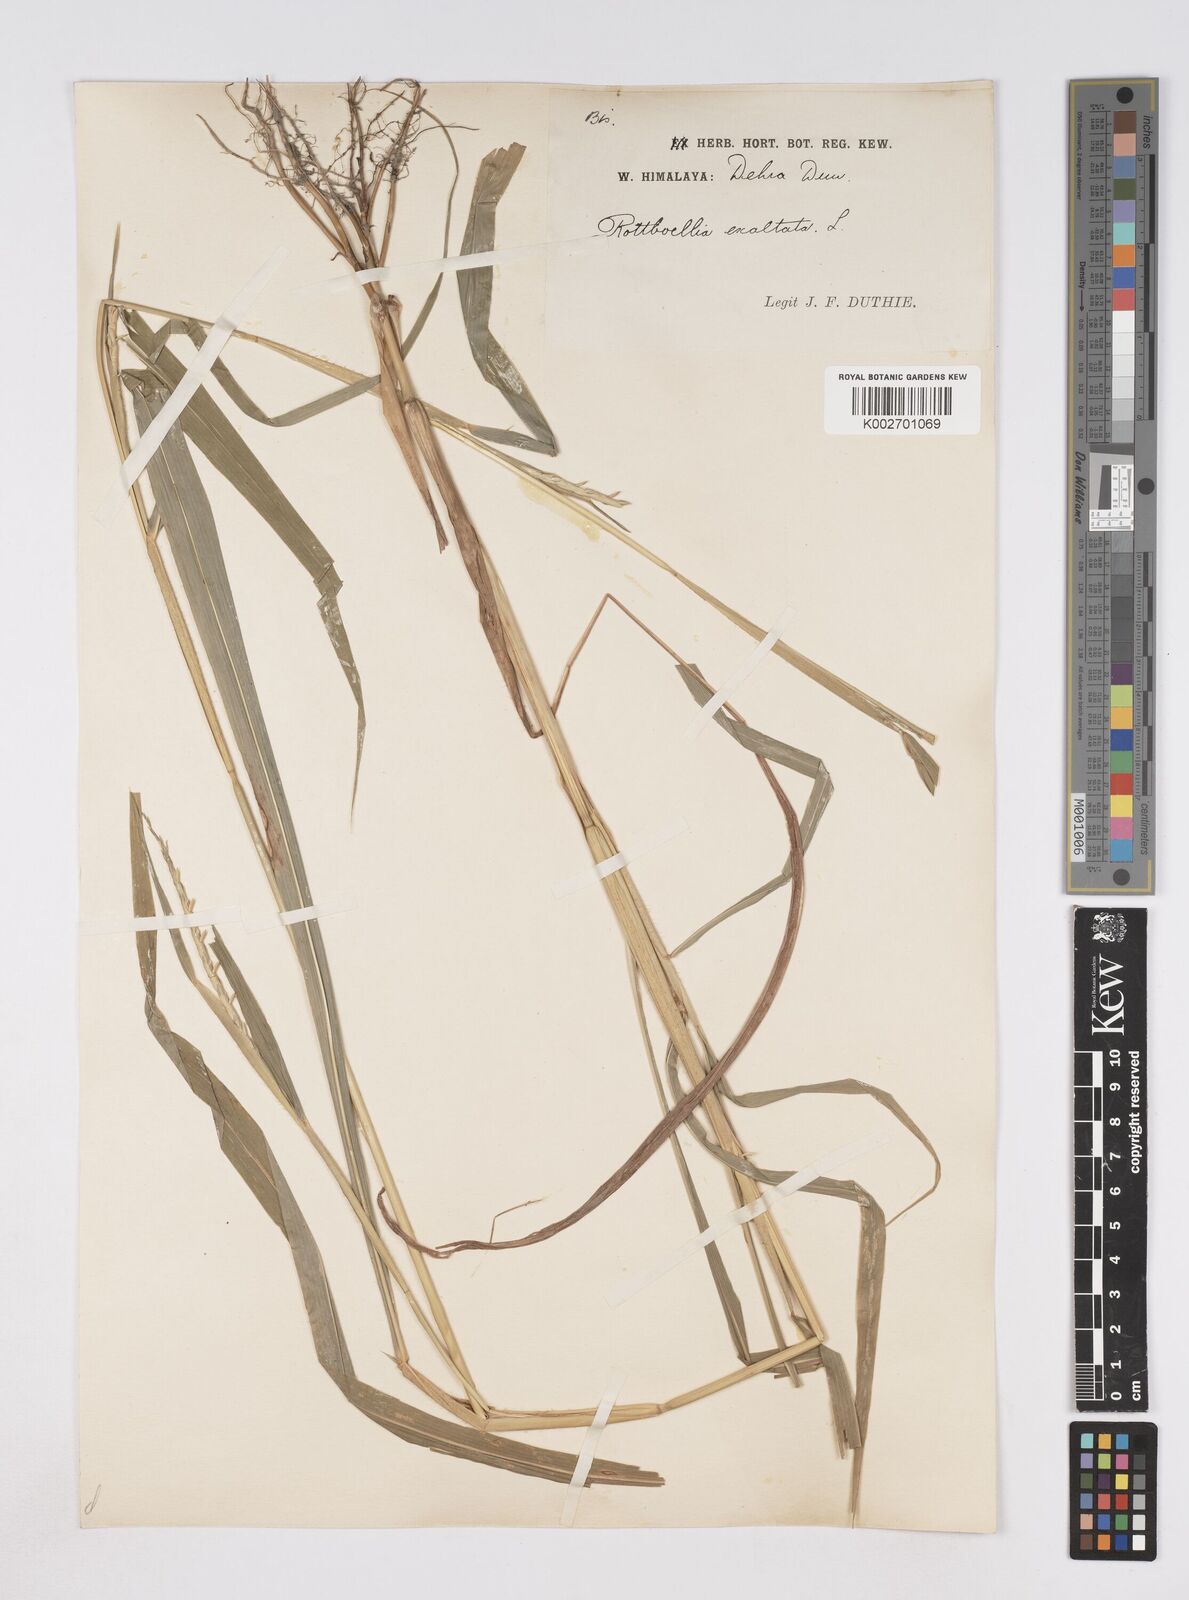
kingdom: Plantae
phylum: Tracheophyta
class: Liliopsida
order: Poales
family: Poaceae
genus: Ophiuros
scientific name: Ophiuros exaltatus
